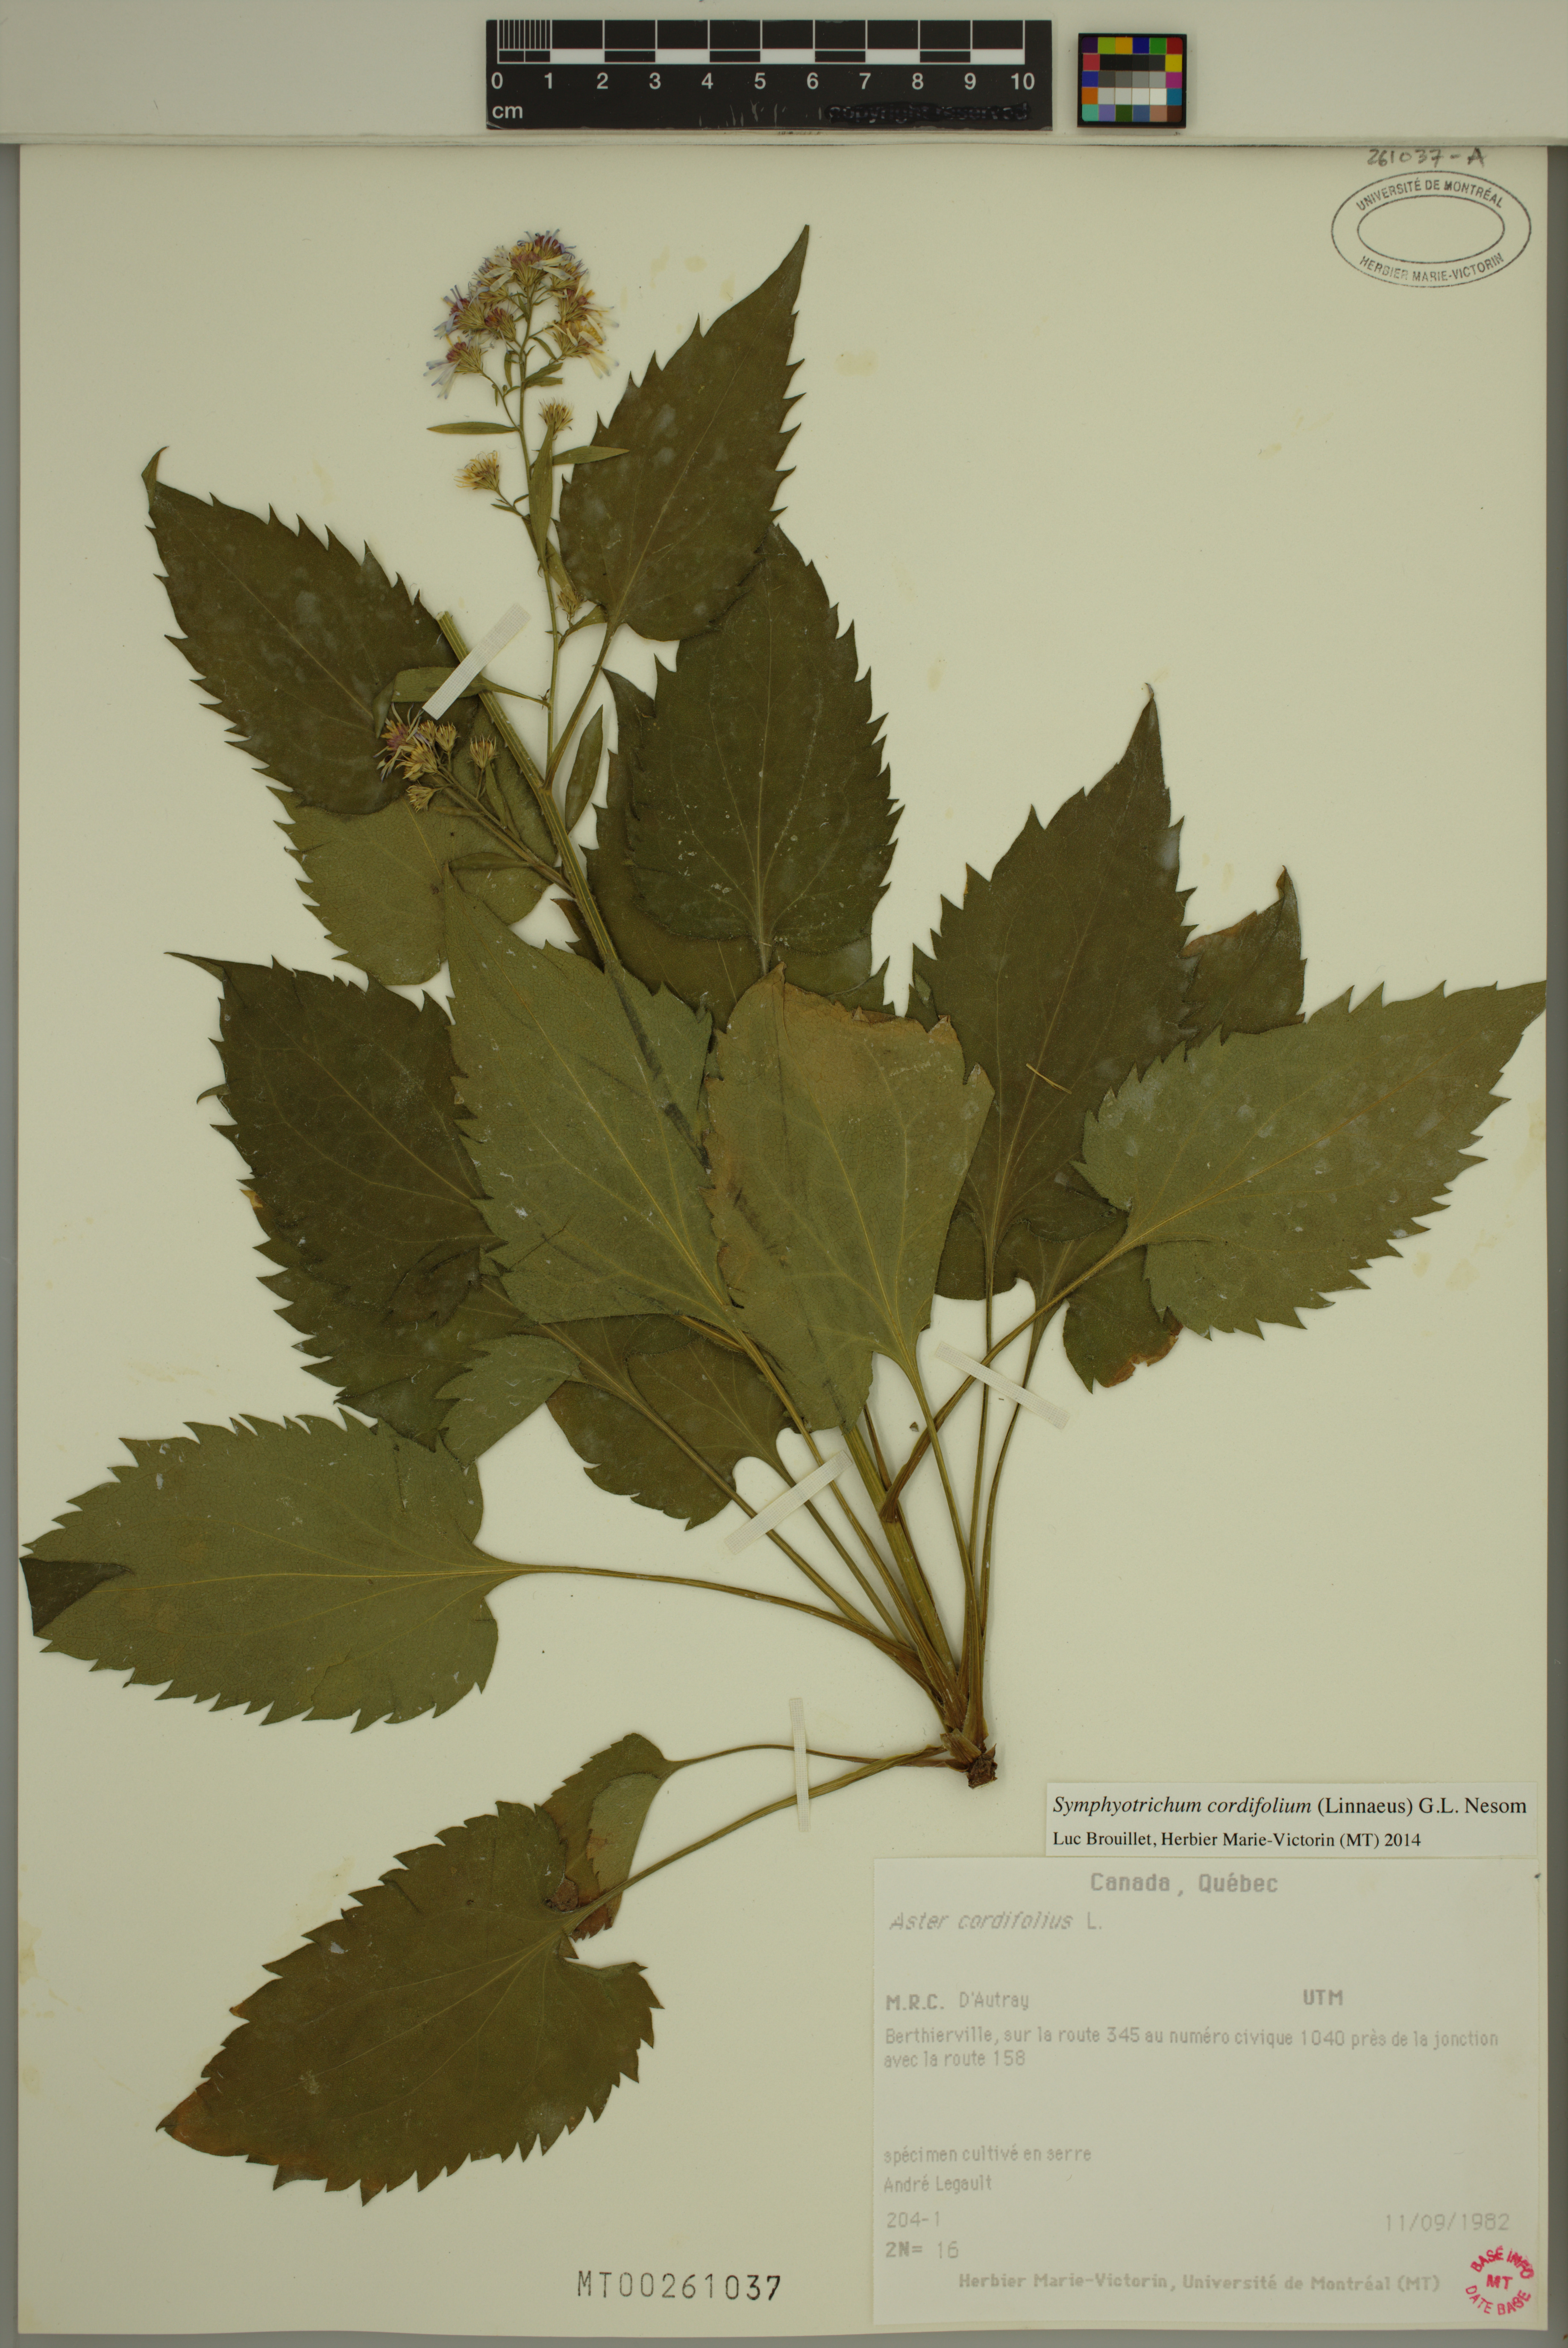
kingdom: Plantae
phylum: Tracheophyta
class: Magnoliopsida
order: Asterales
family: Asteraceae
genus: Symphyotrichum
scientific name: Symphyotrichum cordifolium
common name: Beeweed
